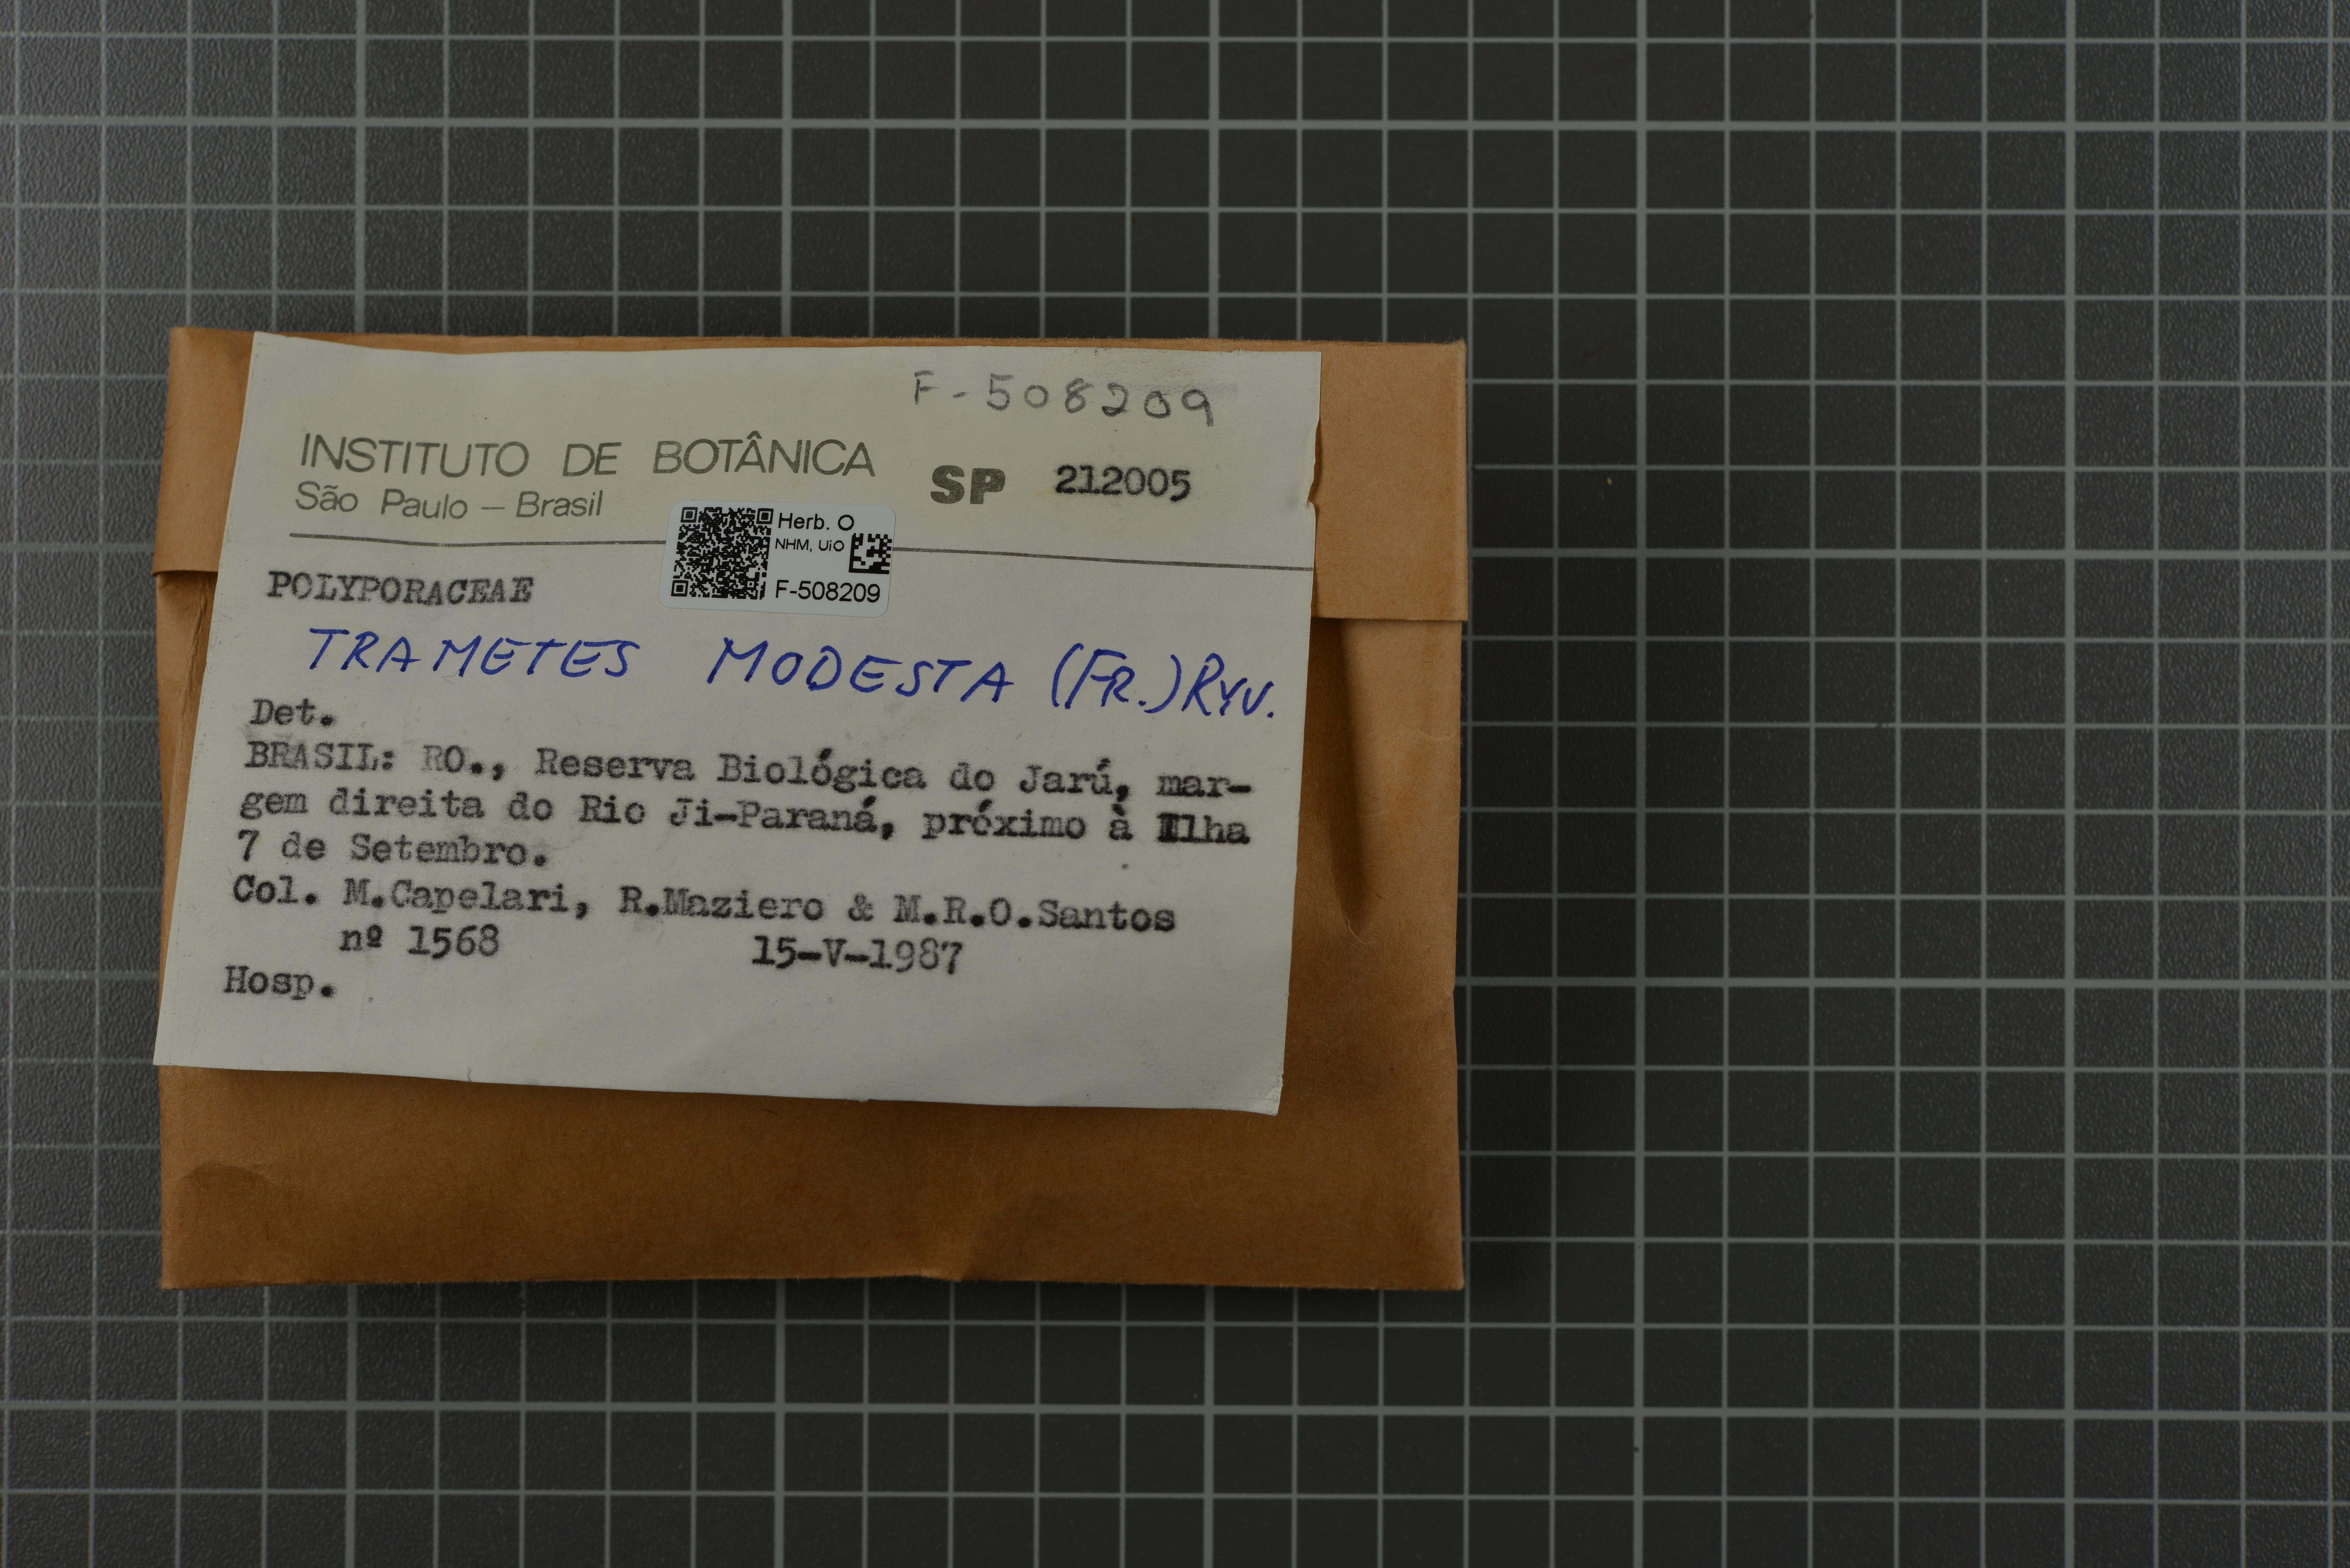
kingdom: Fungi
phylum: Basidiomycota
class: Agaricomycetes
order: Polyporales
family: Fomitopsidaceae
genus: Ranadivia
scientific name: Ranadivia modesta
